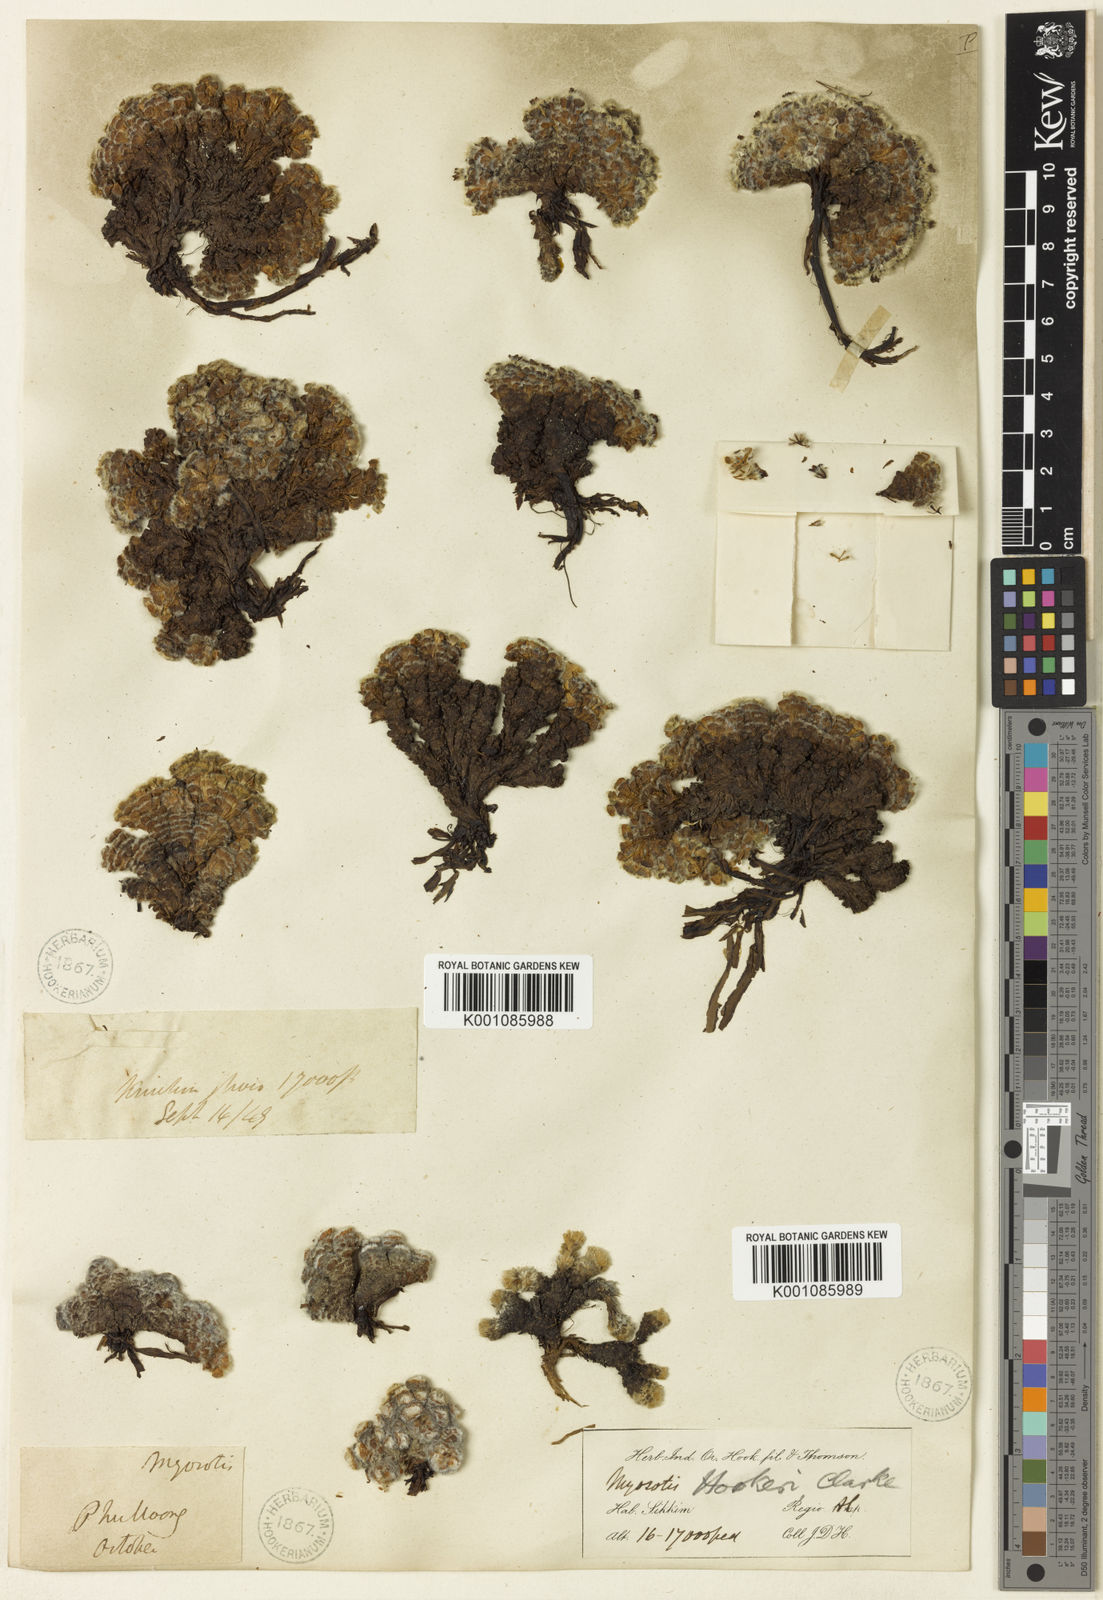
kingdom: Plantae
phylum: Tracheophyta
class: Magnoliopsida
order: Boraginales
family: Boraginaceae
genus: Chionocharis
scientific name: Chionocharis hookeri
